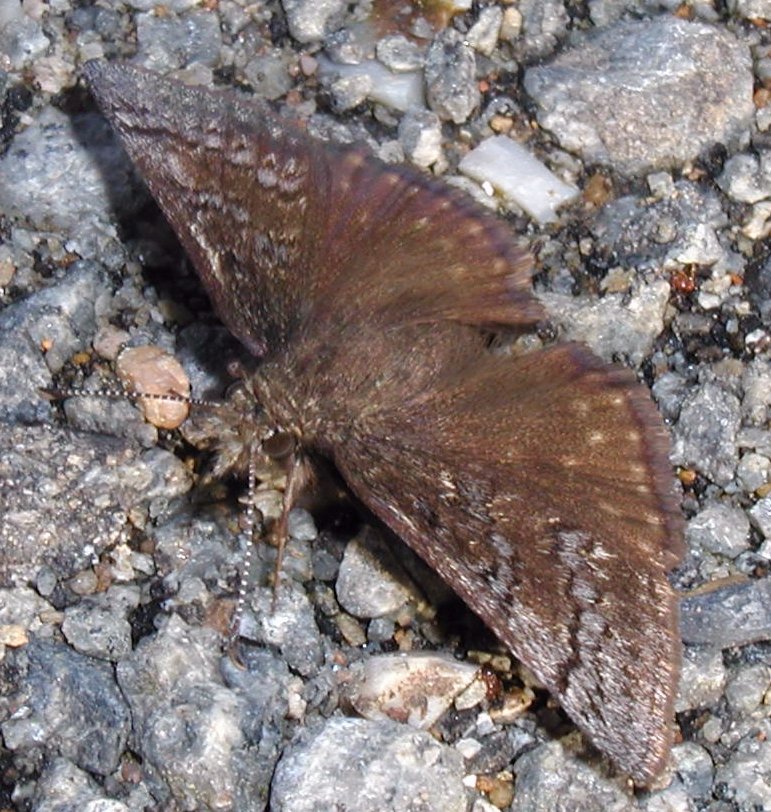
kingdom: Animalia
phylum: Arthropoda
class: Insecta
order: Lepidoptera
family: Hesperiidae
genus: Erynnis
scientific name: Erynnis brizo
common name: Sleepy Duskywing
